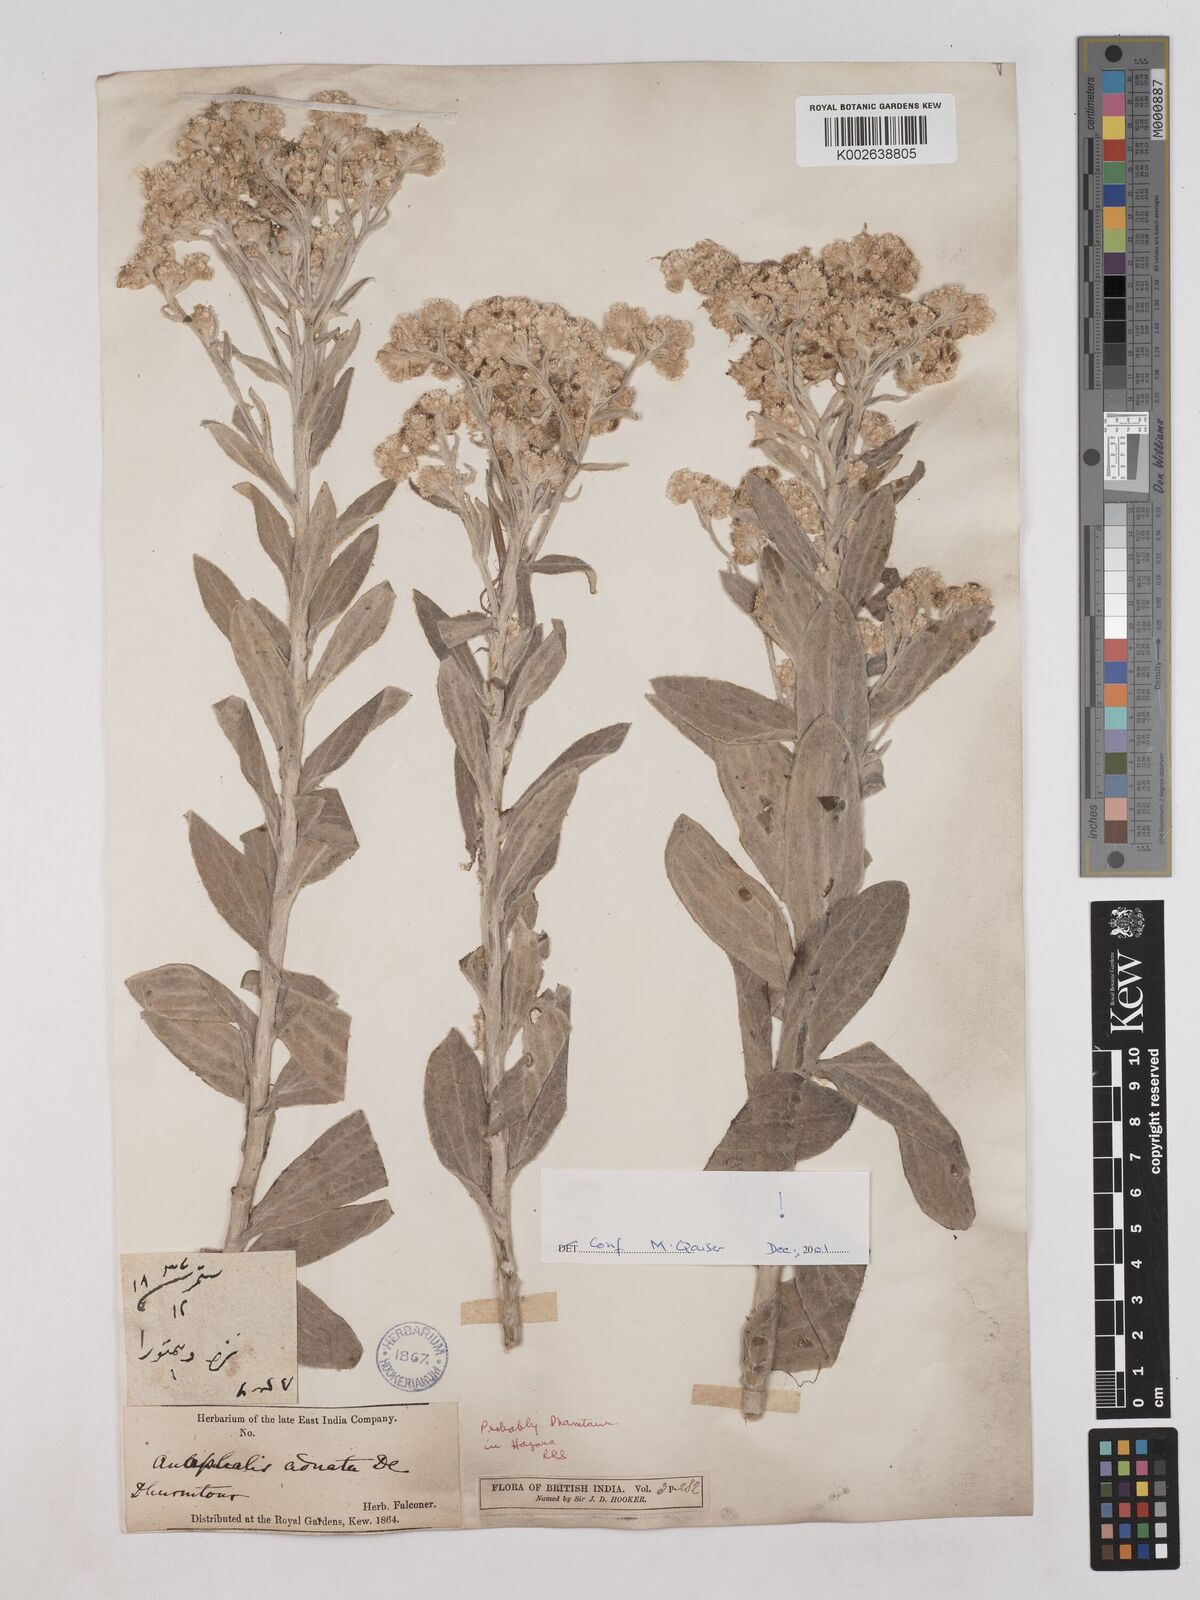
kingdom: Plantae
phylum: Tracheophyta
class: Magnoliopsida
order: Asterales
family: Asteraceae
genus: Pseudognaphalium
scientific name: Pseudognaphalium adnatum
